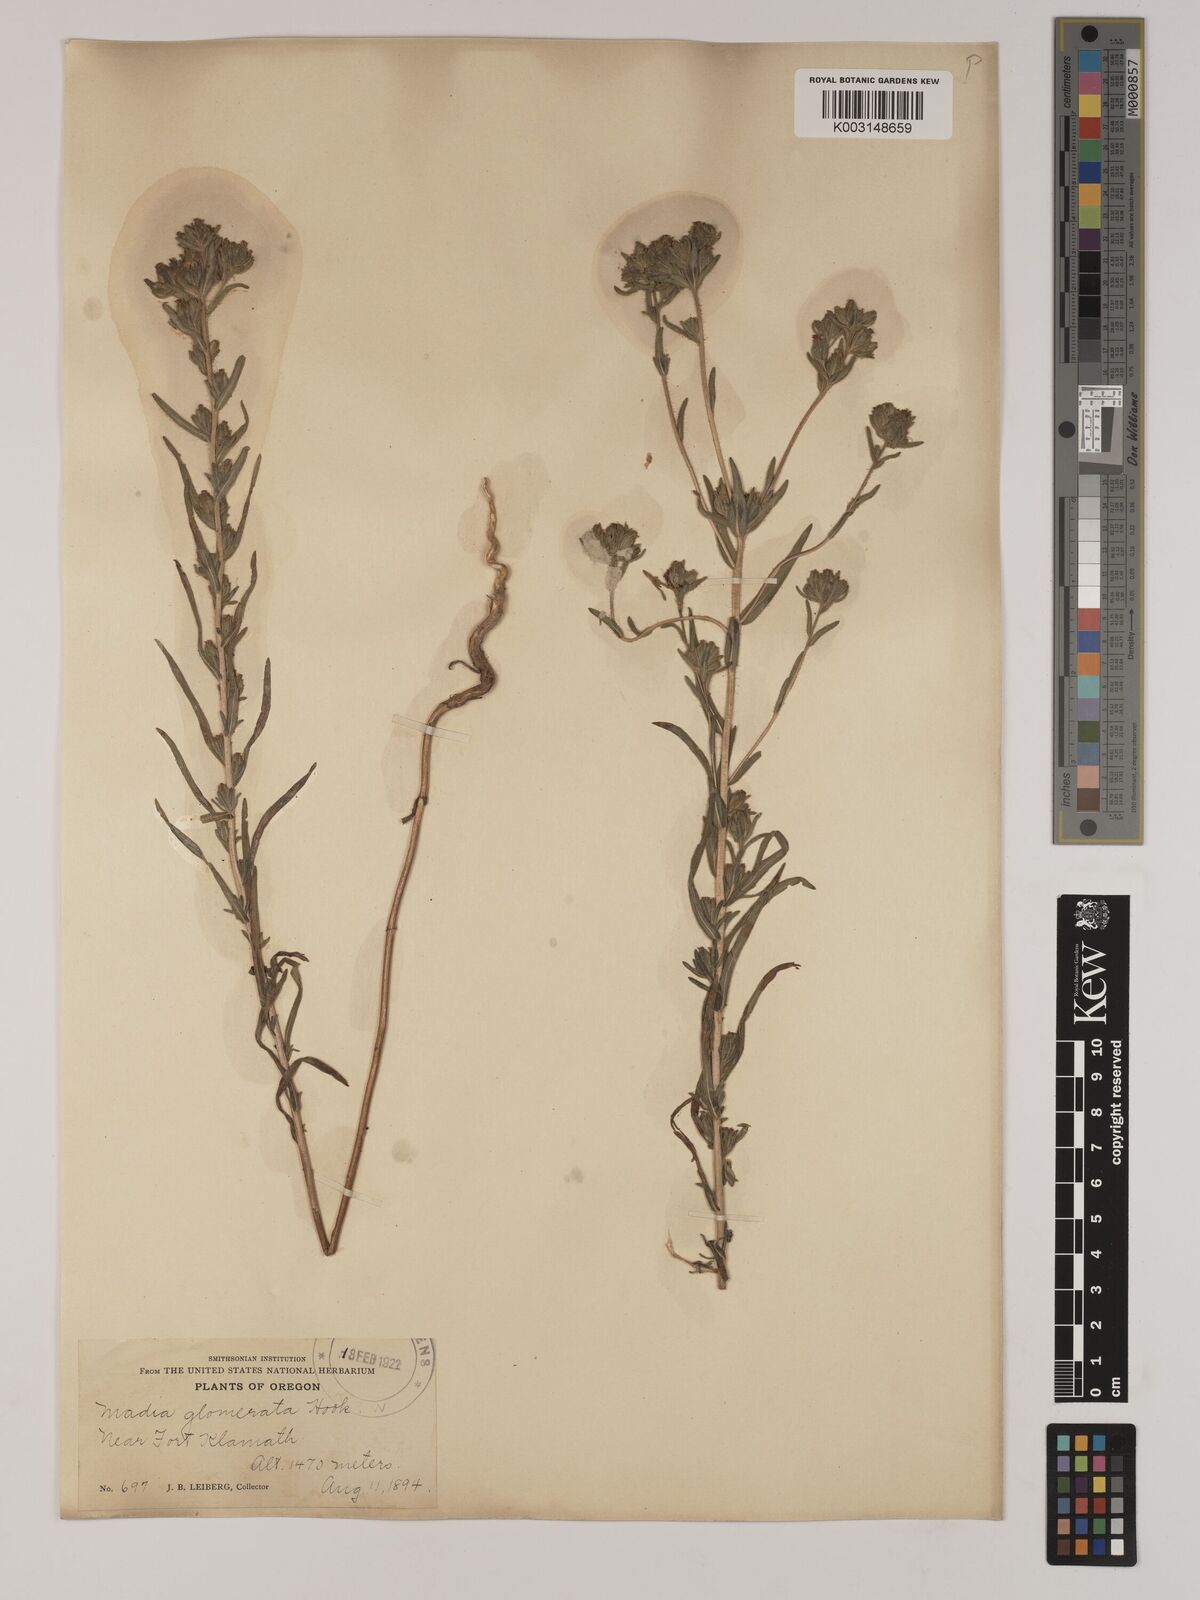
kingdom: Plantae
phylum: Tracheophyta
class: Magnoliopsida
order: Asterales
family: Asteraceae
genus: Madia
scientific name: Madia glomerata
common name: Mountain tarweed
